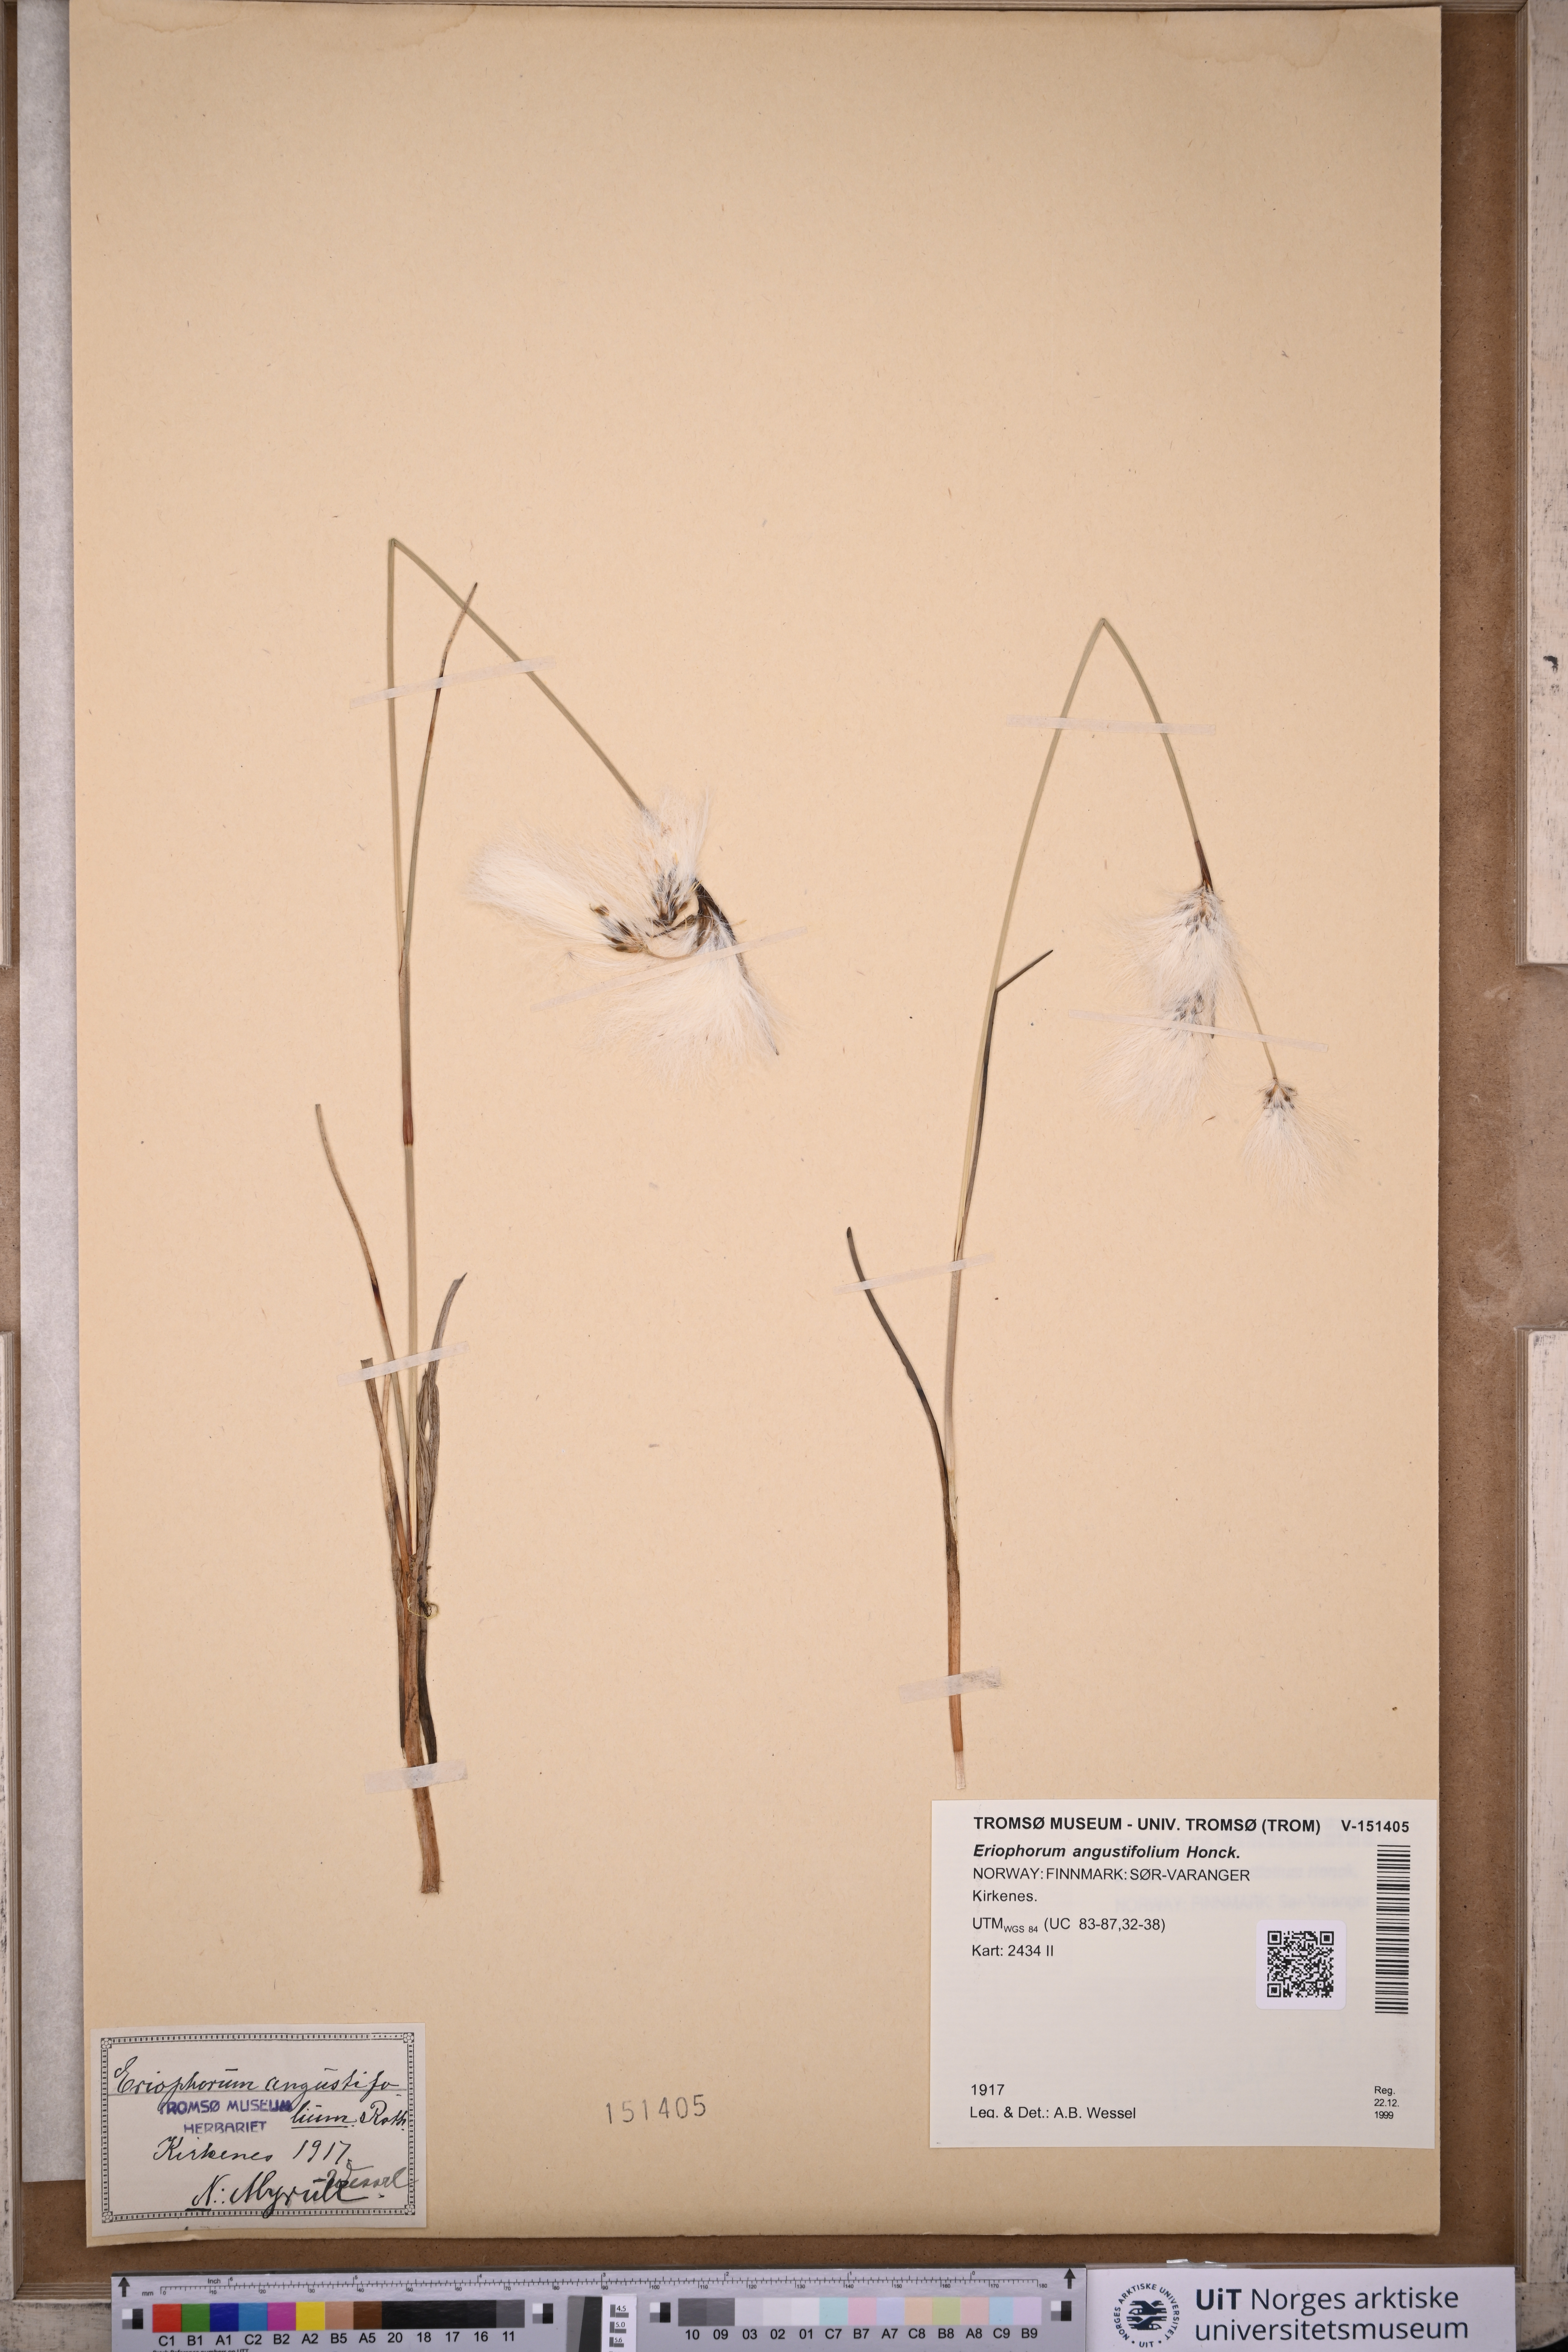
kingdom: Plantae
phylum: Tracheophyta
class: Liliopsida
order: Poales
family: Cyperaceae
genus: Eriophorum
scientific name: Eriophorum angustifolium
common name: Common cottongrass
